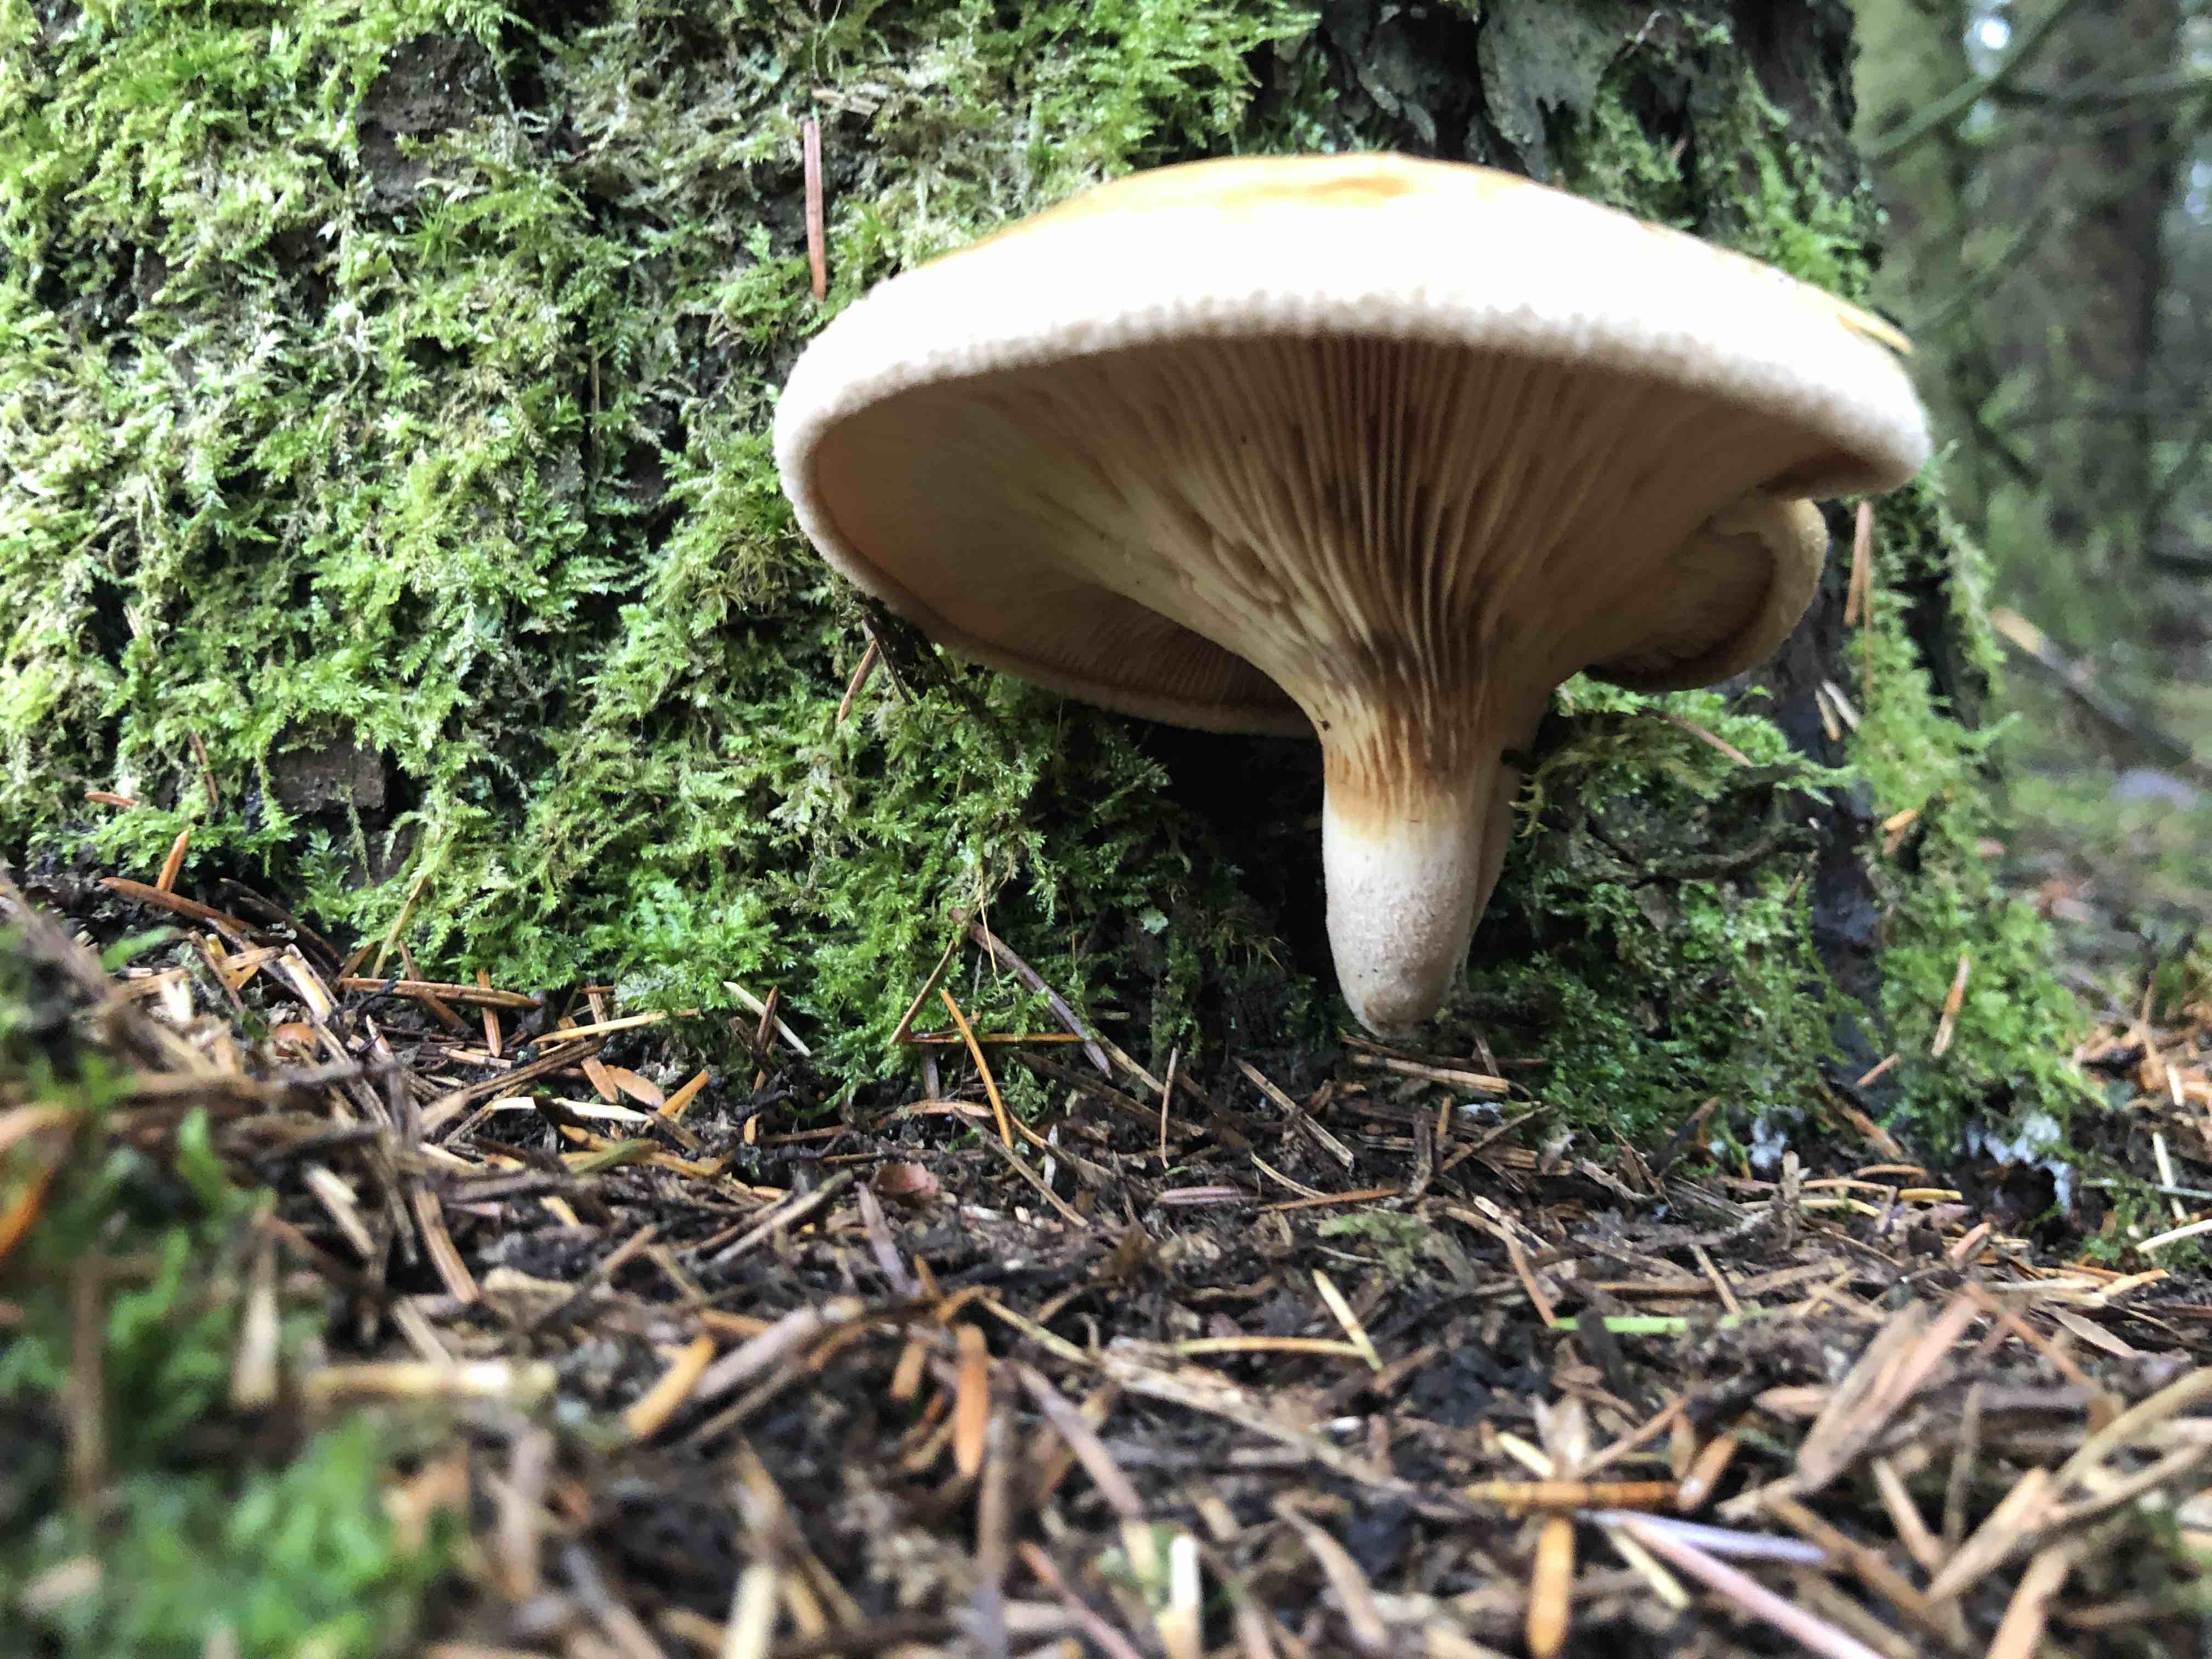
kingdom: Fungi
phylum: Basidiomycota
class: Agaricomycetes
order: Boletales
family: Paxillaceae
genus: Paxillus
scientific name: Paxillus involutus
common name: almindelig netbladhat
